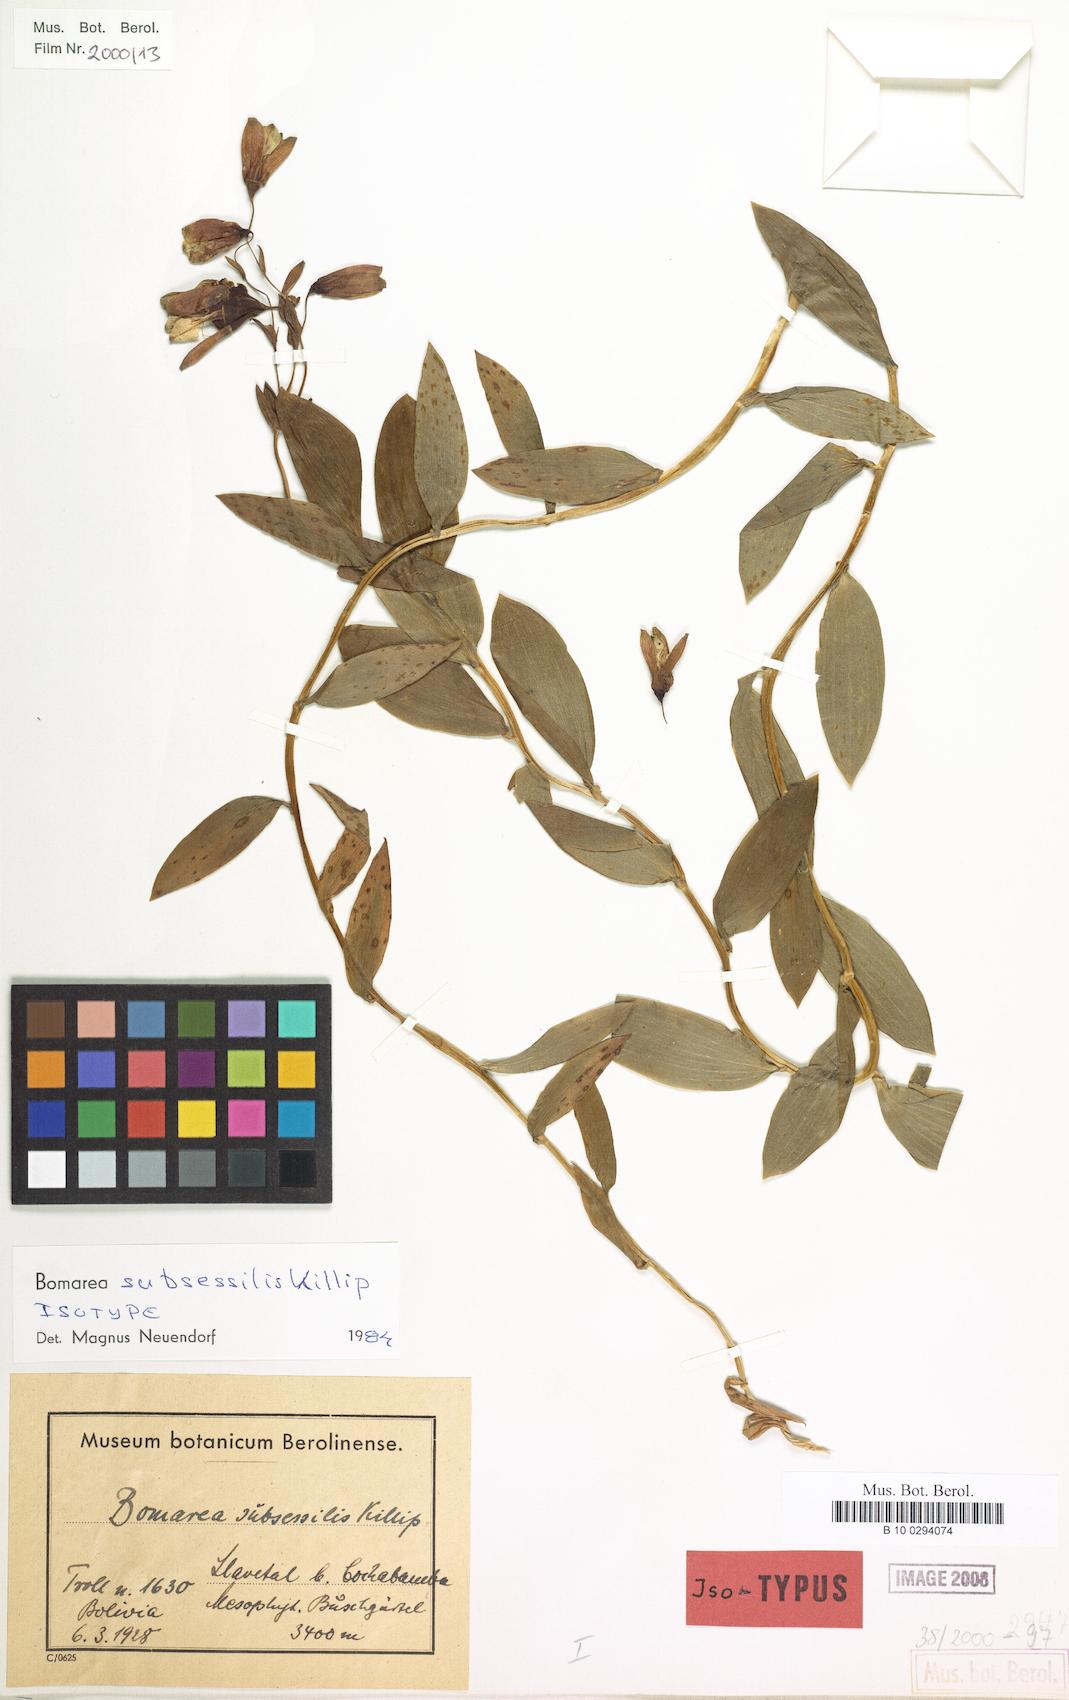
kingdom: Plantae
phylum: Tracheophyta
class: Liliopsida
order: Liliales
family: Alstroemeriaceae
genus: Bomarea
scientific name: Bomarea ovata
